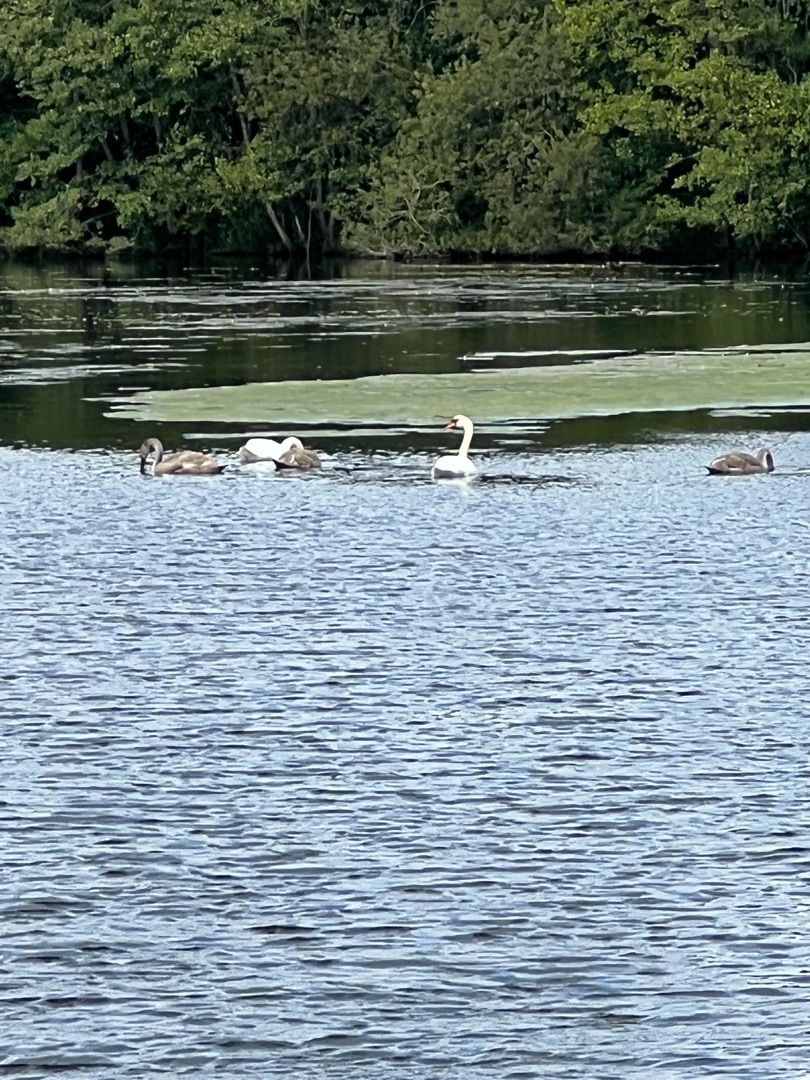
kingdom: Animalia
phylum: Chordata
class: Aves
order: Anseriformes
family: Anatidae
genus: Cygnus
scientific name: Cygnus olor
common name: Knopsvane
